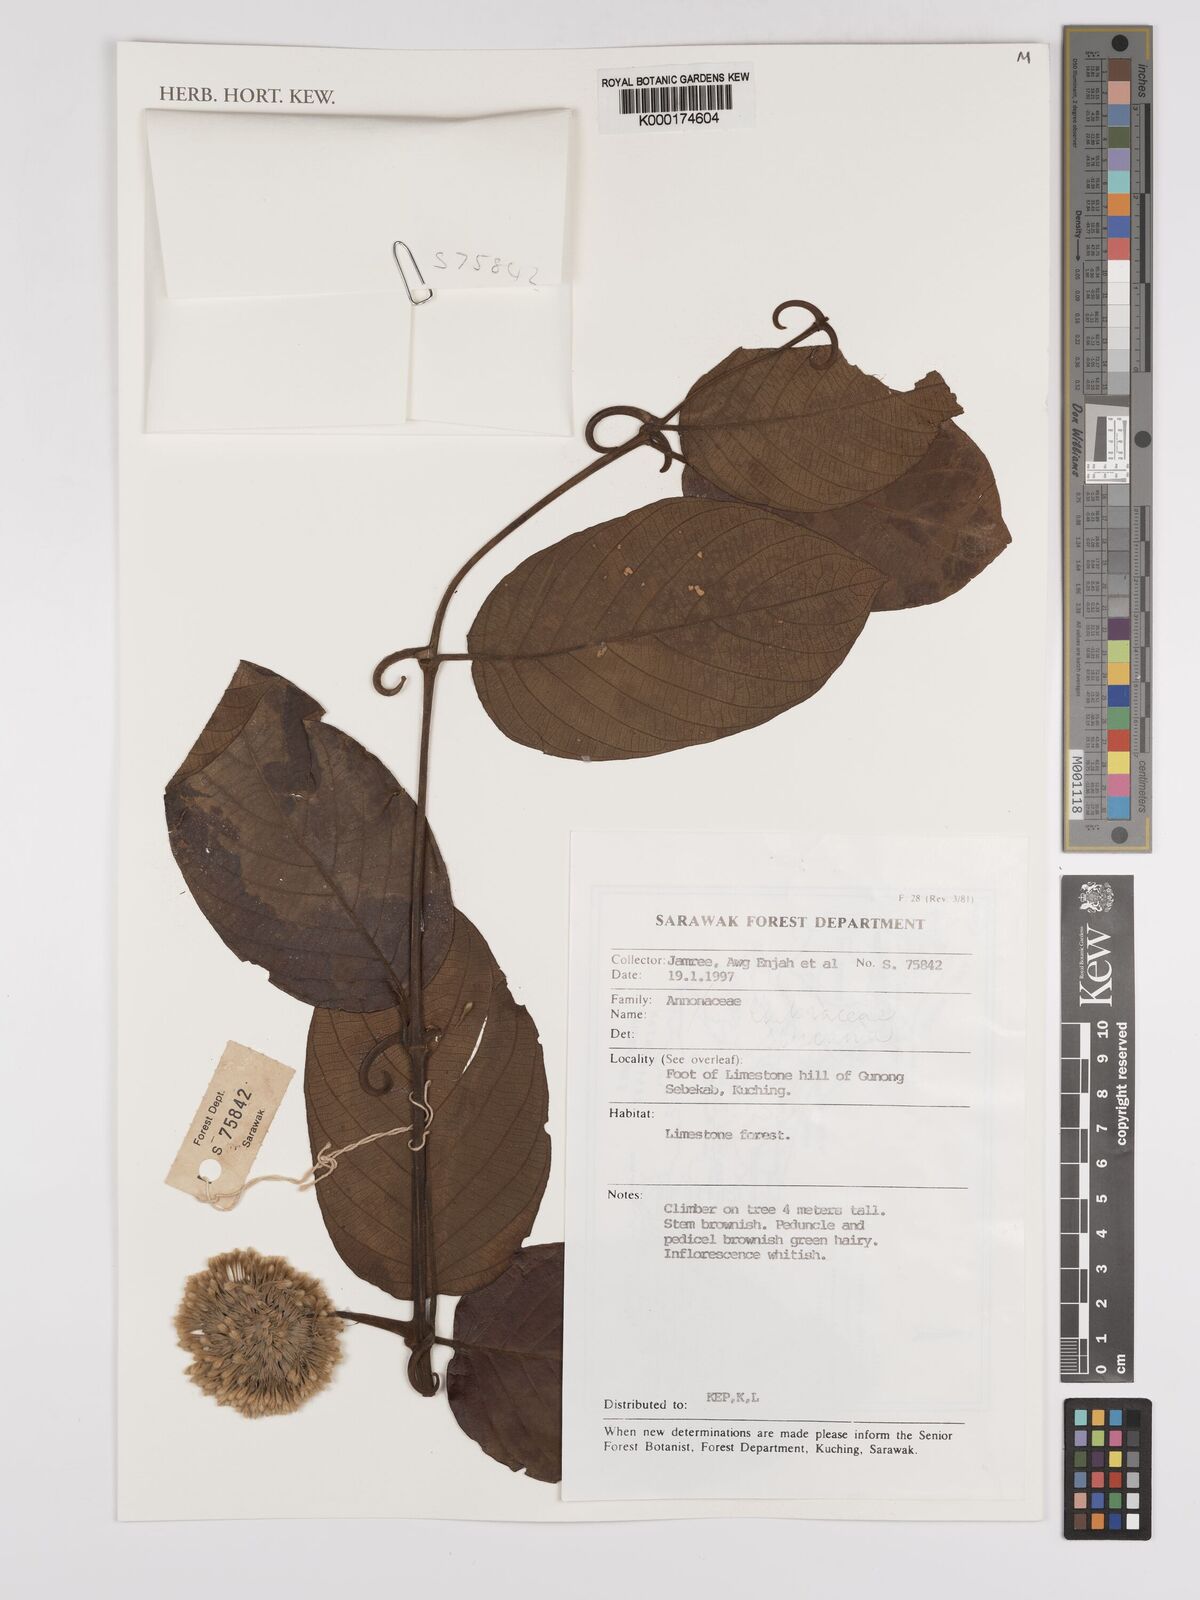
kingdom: Plantae
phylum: Tracheophyta
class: Magnoliopsida
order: Gentianales
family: Rubiaceae
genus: Uncaria
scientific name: Uncaria
